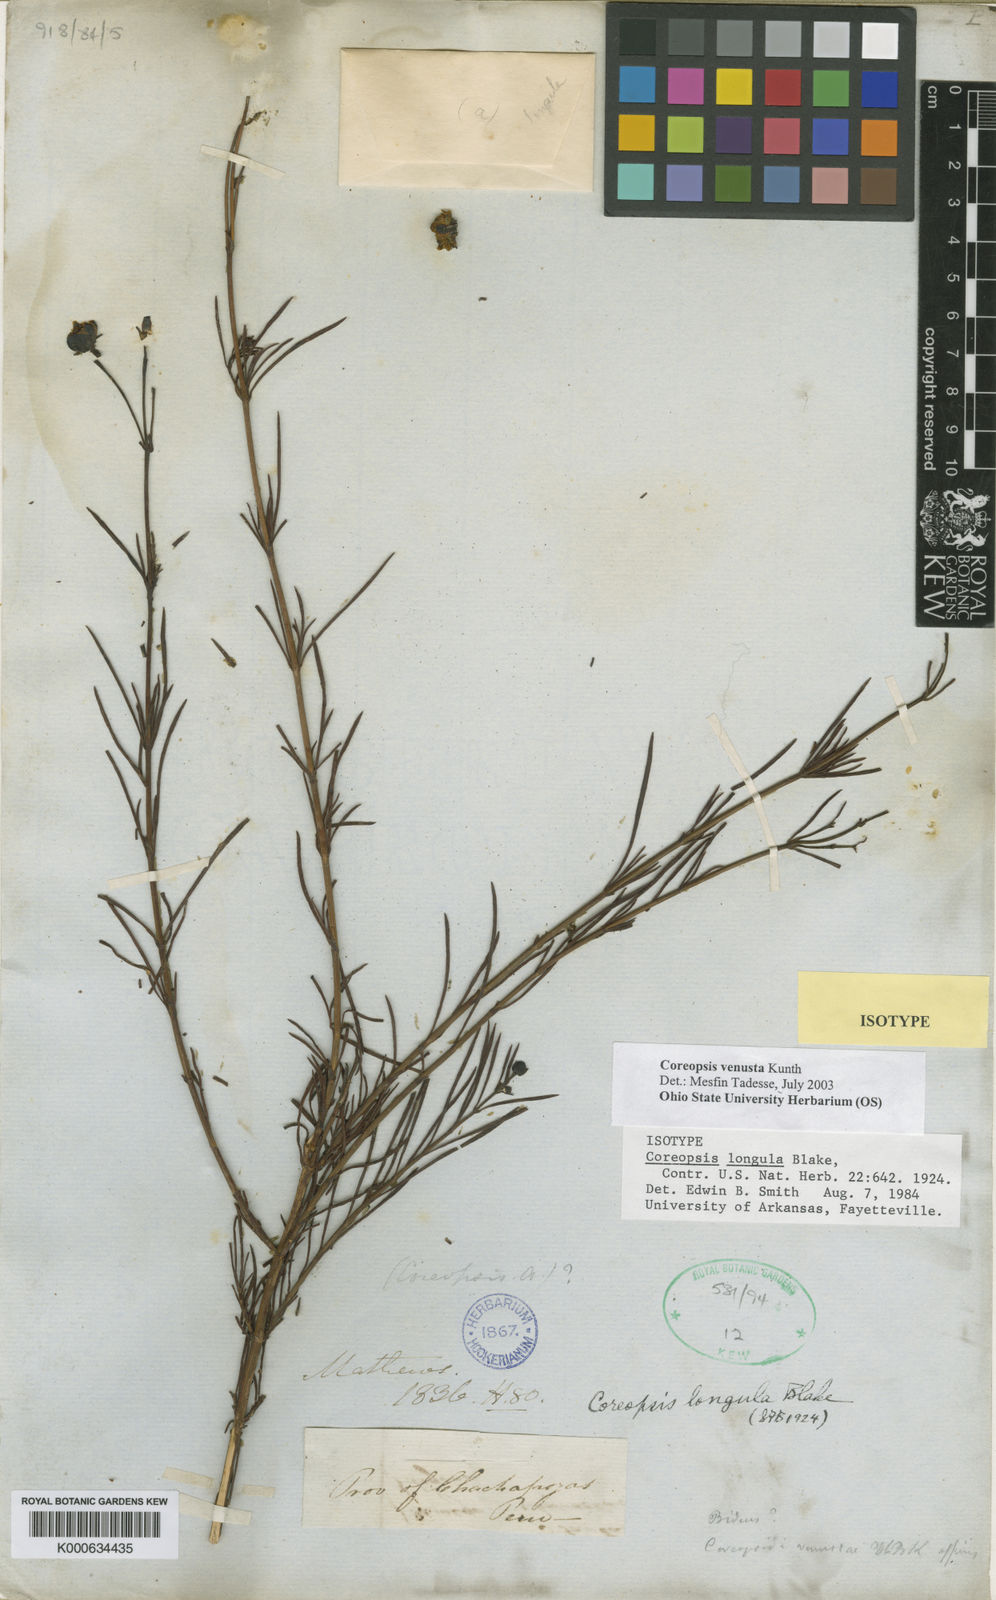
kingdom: Plantae
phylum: Tracheophyta
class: Magnoliopsida
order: Asterales
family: Asteraceae
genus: Coreopsis
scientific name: Coreopsis venusta
